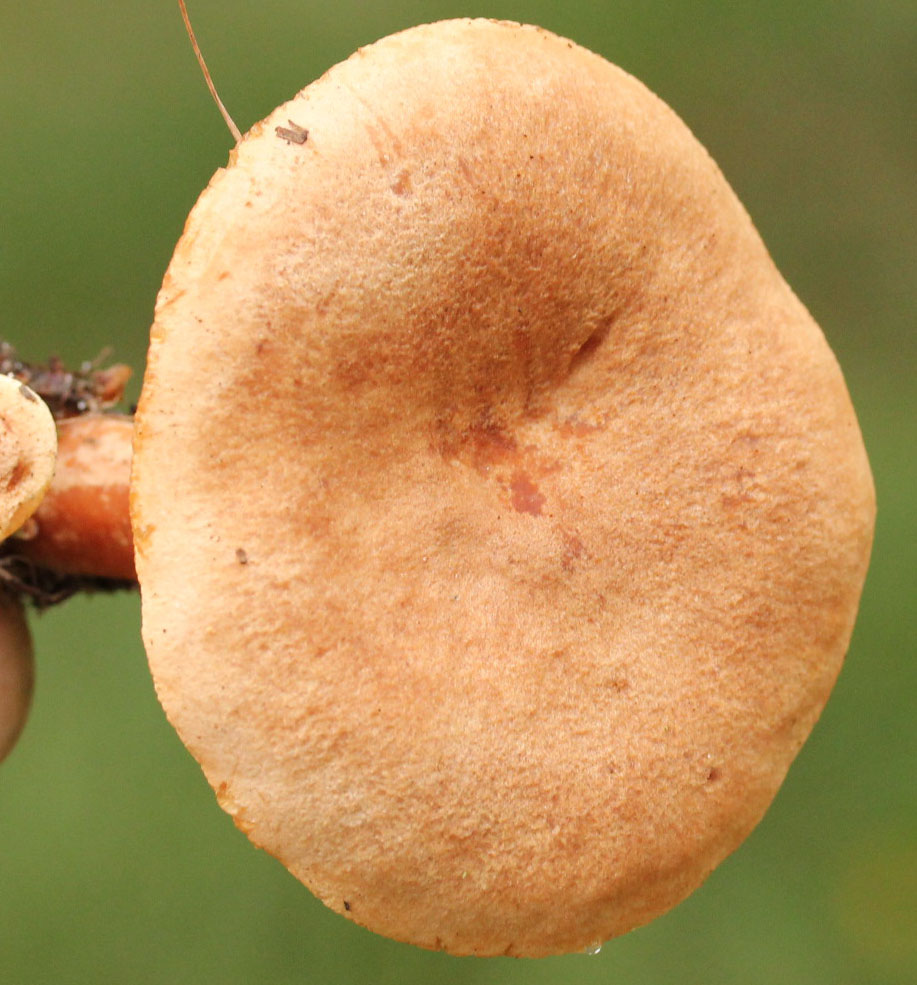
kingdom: Fungi
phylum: Basidiomycota
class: Agaricomycetes
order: Russulales
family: Russulaceae
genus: Lactarius
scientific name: Lactarius helvus
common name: mose-mælkehat
